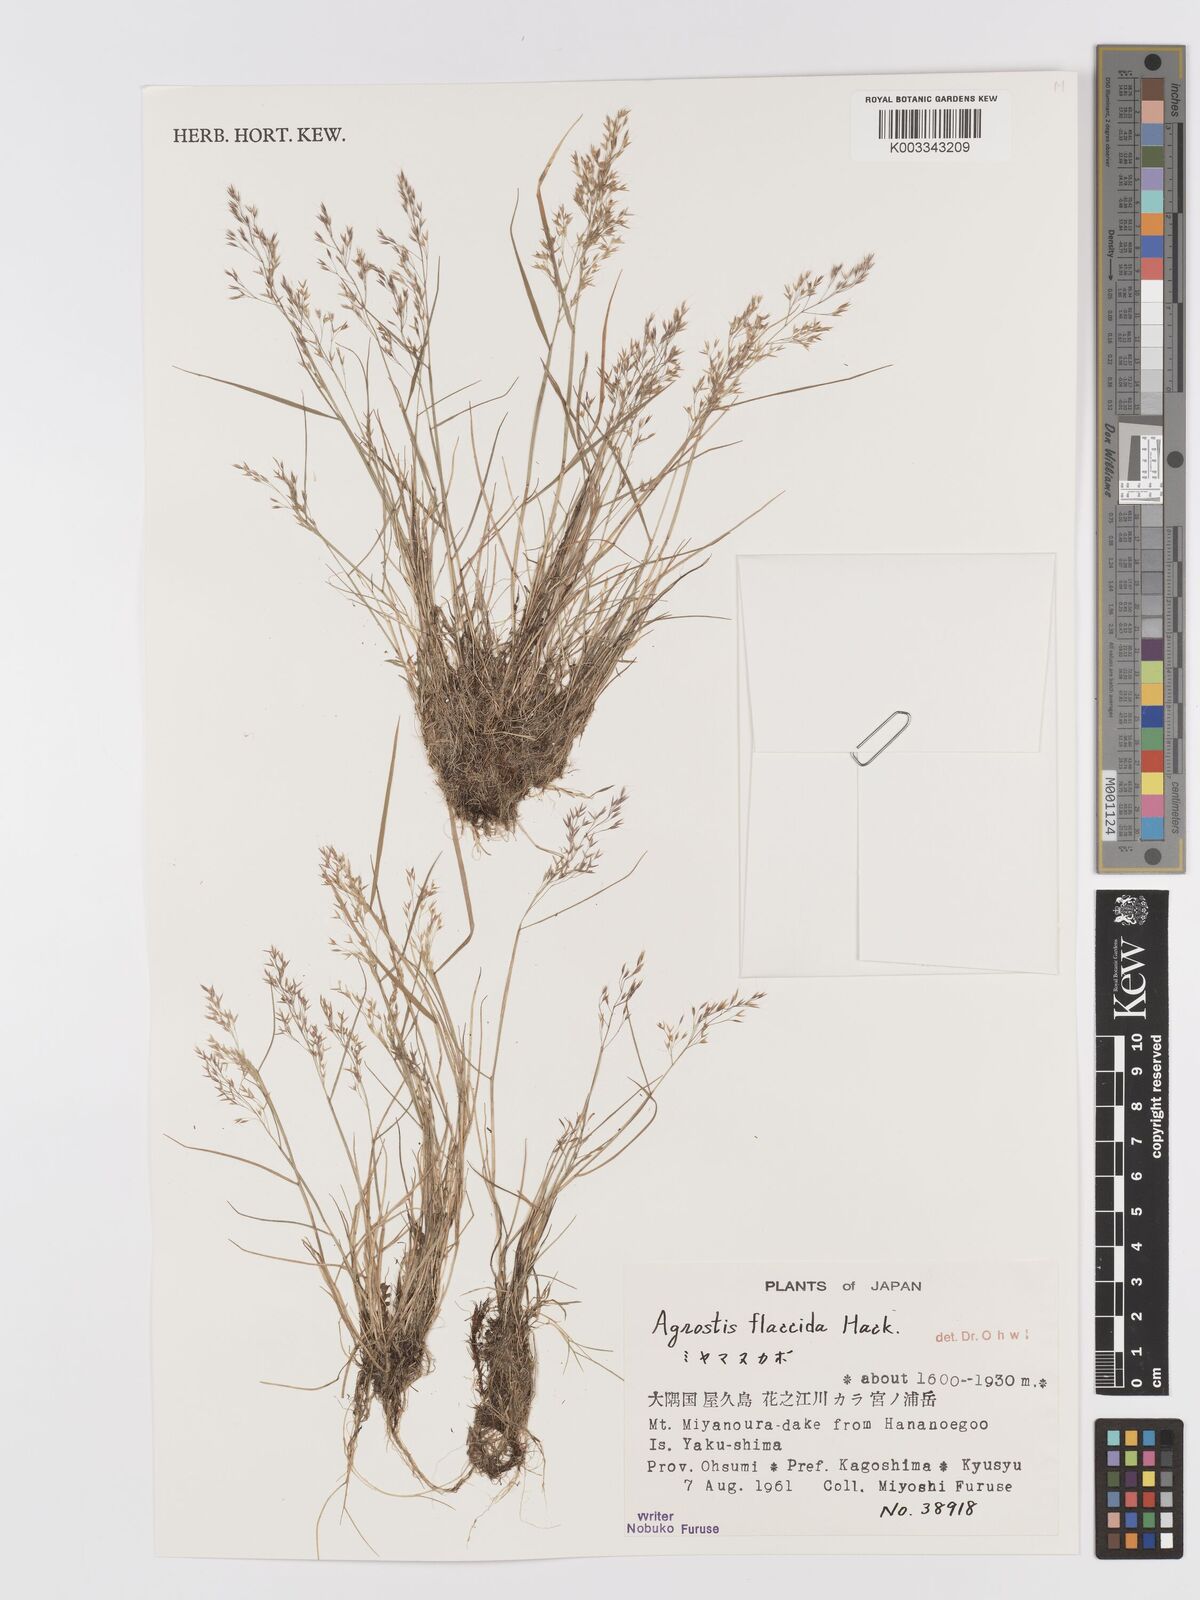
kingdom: Plantae
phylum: Tracheophyta
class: Liliopsida
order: Poales
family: Poaceae
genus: Agrostis
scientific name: Agrostis flaccida
